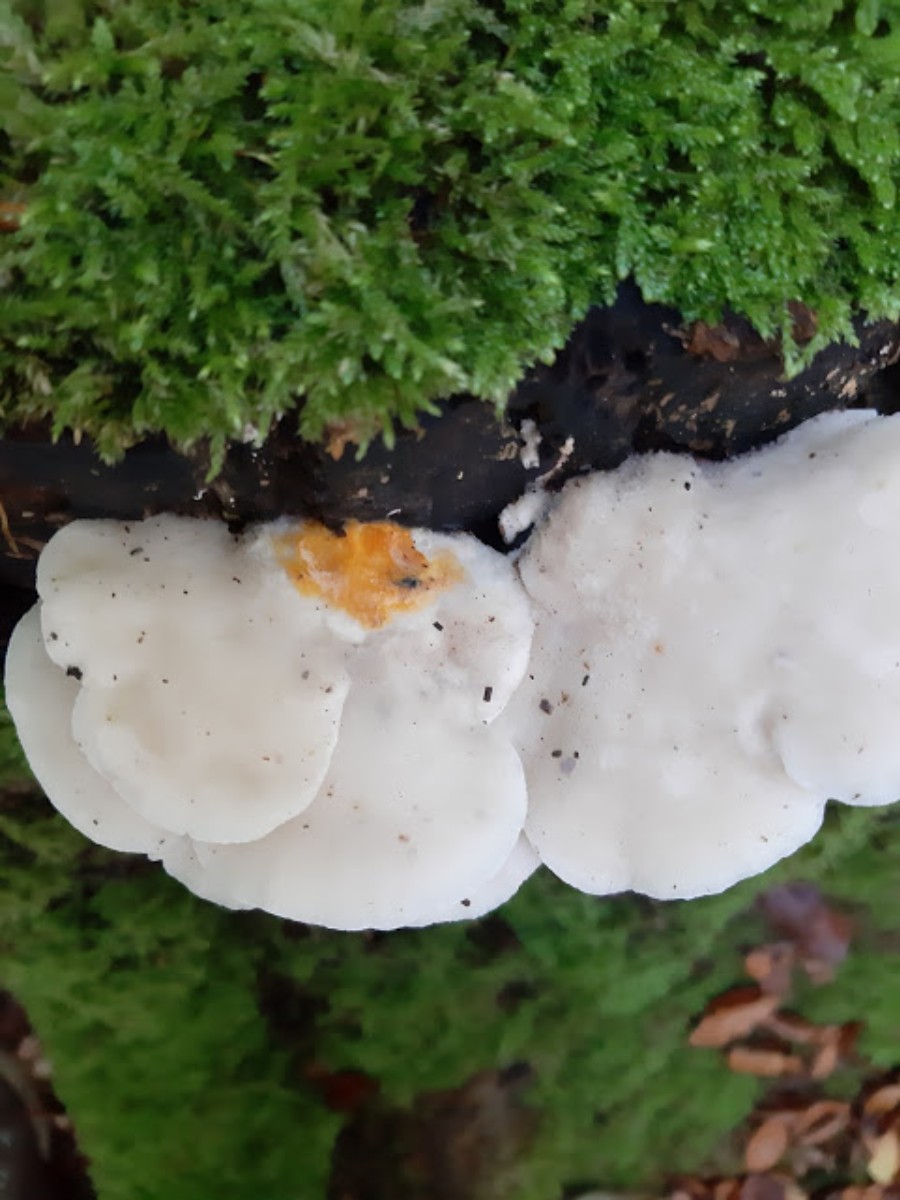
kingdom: Fungi
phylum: Basidiomycota
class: Agaricomycetes
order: Polyporales
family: Incrustoporiaceae
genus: Tyromyces
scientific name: Tyromyces lacteus
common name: mælkehvid kødporesvamp
